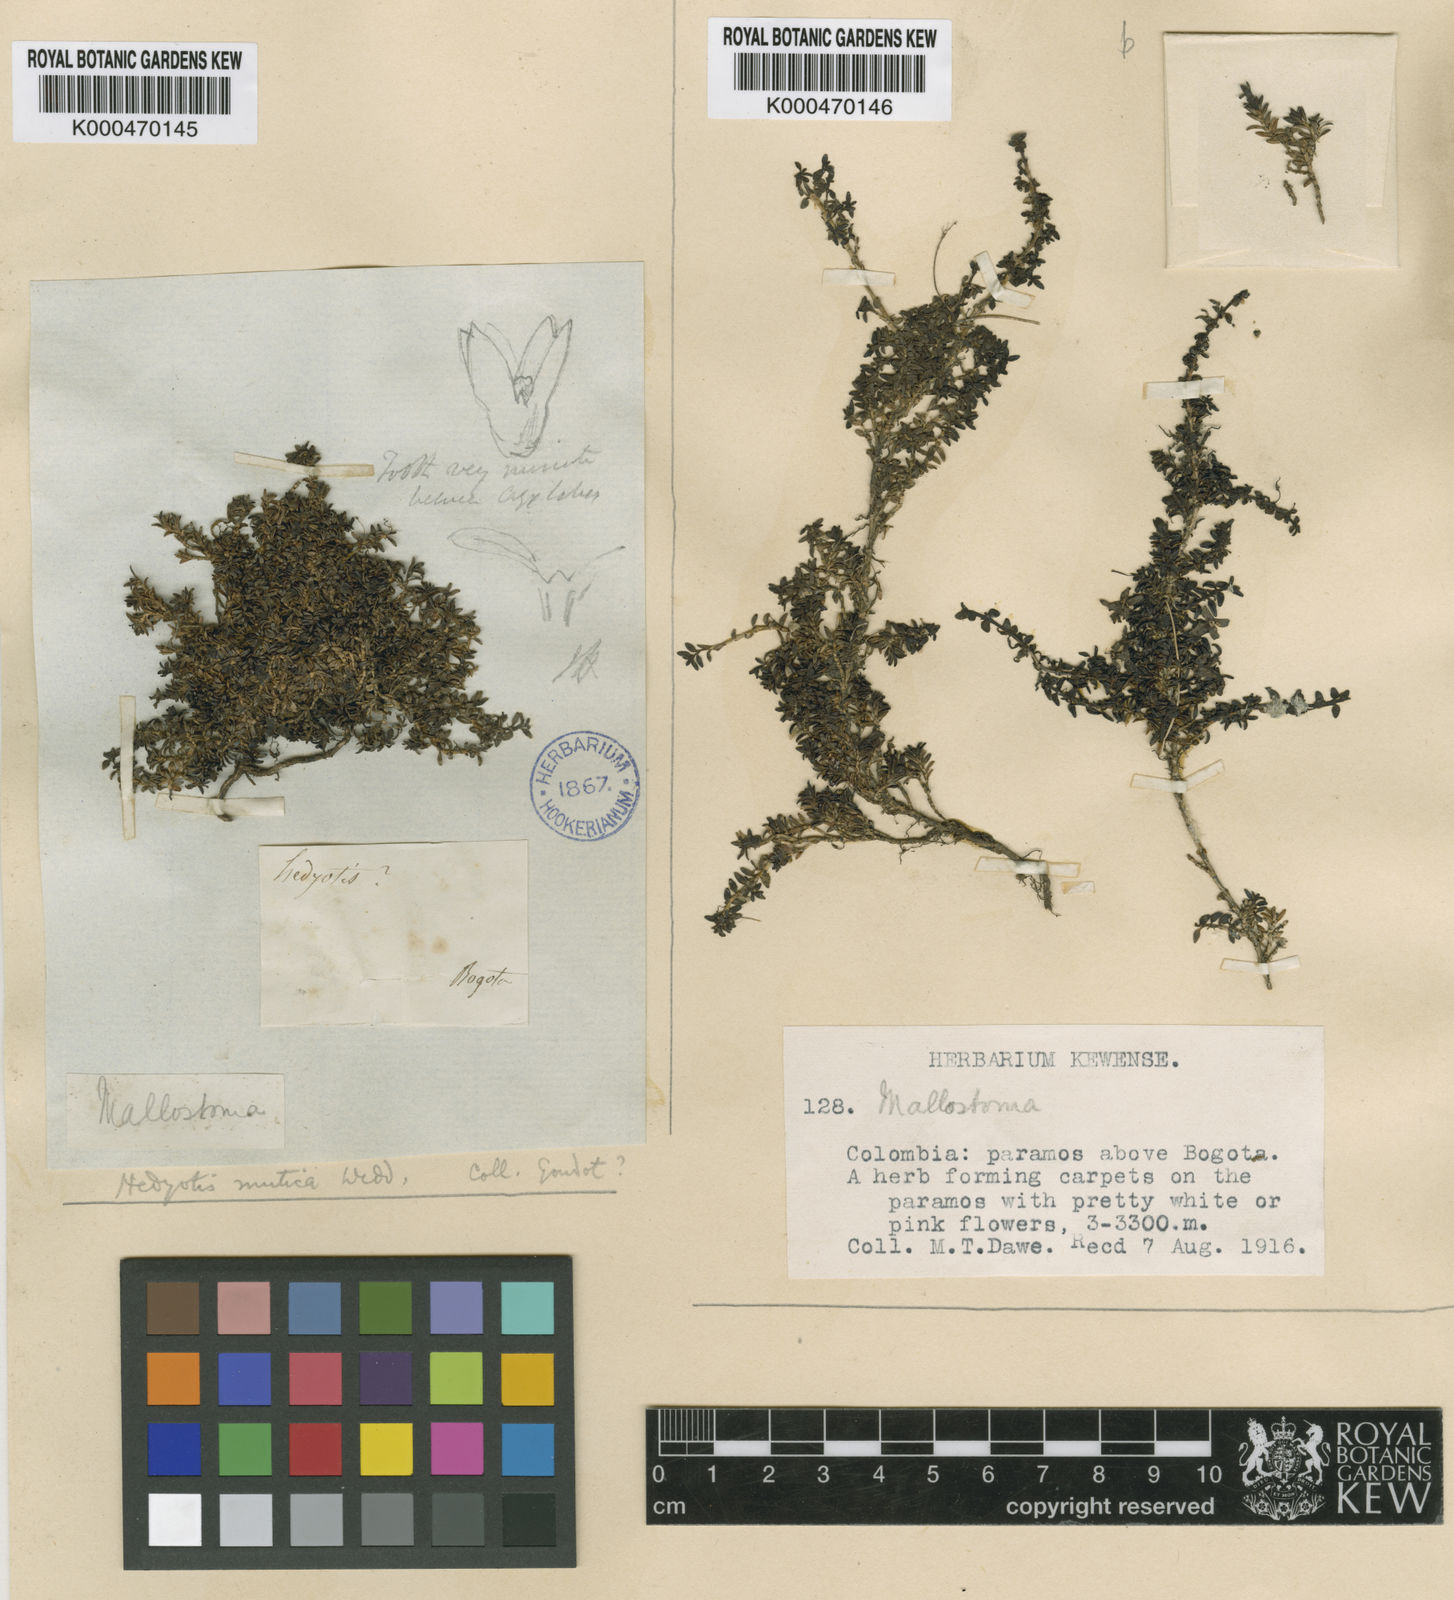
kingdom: Plantae
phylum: Tracheophyta
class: Magnoliopsida
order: Gentianales
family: Rubiaceae
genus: Arcytophyllum
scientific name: Arcytophyllum muticum
